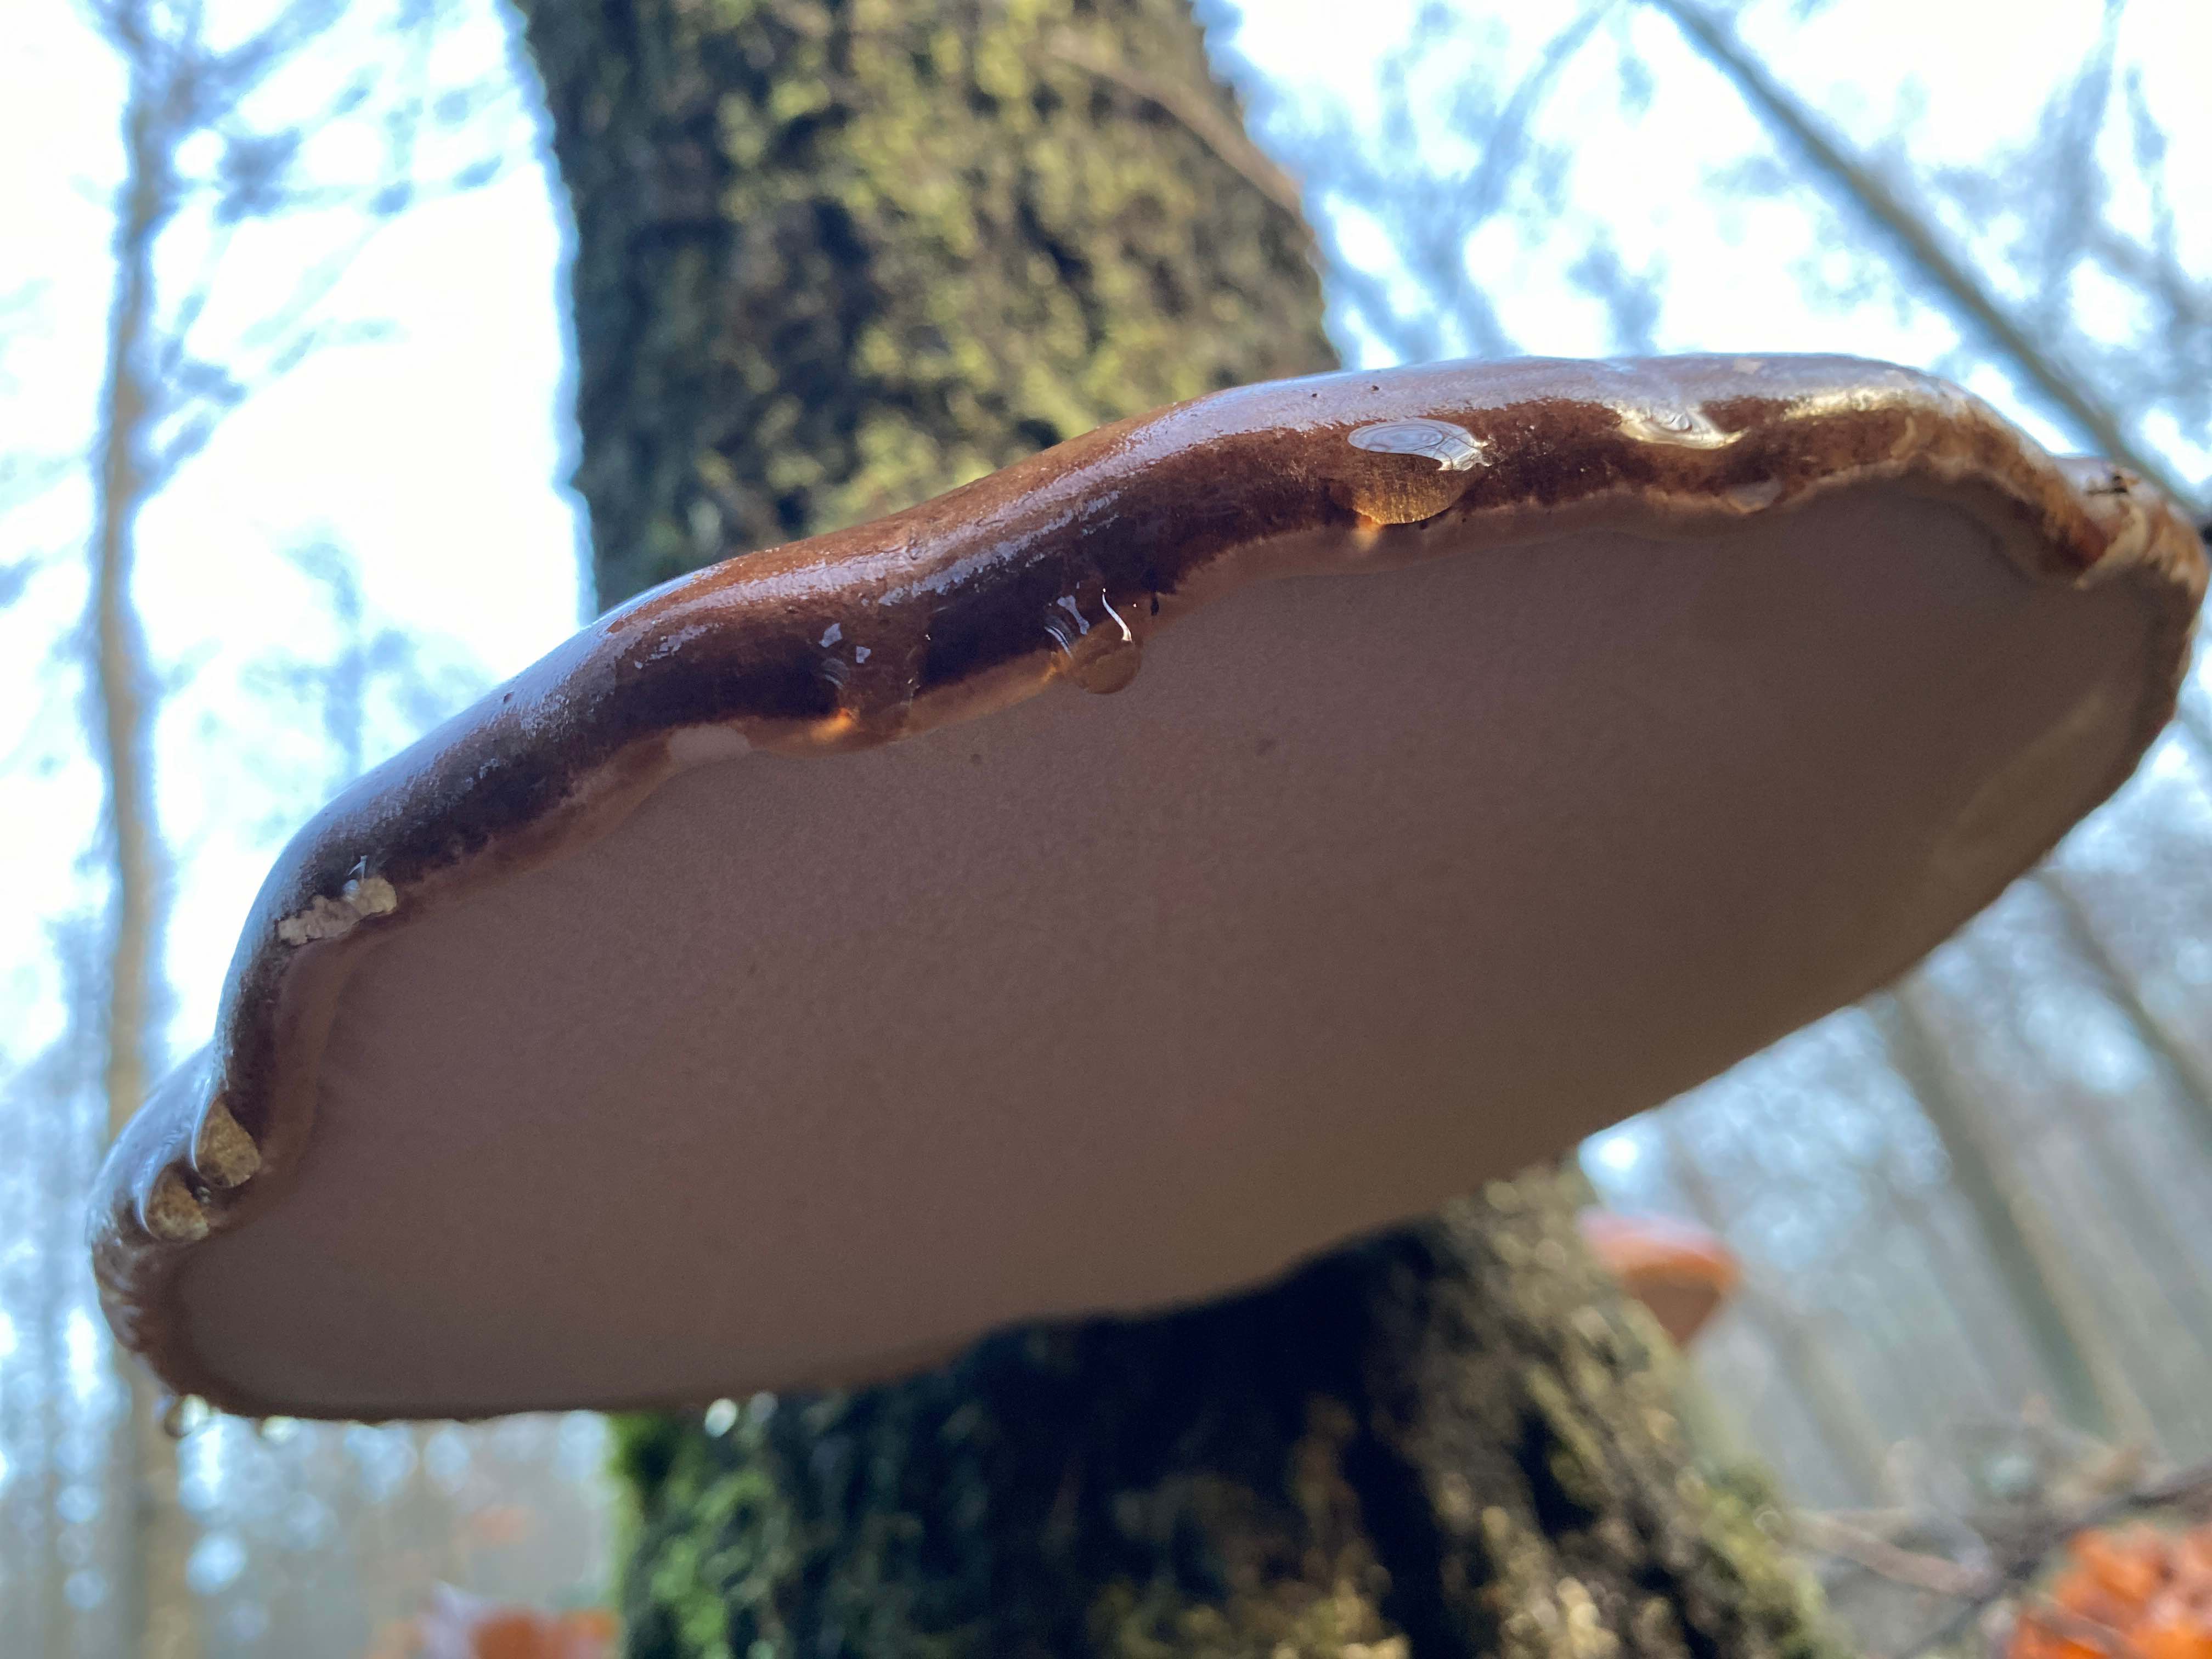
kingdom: Fungi
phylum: Basidiomycota
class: Agaricomycetes
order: Polyporales
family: Fomitopsidaceae
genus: Fomitopsis
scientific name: Fomitopsis betulina
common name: birkeporesvamp
